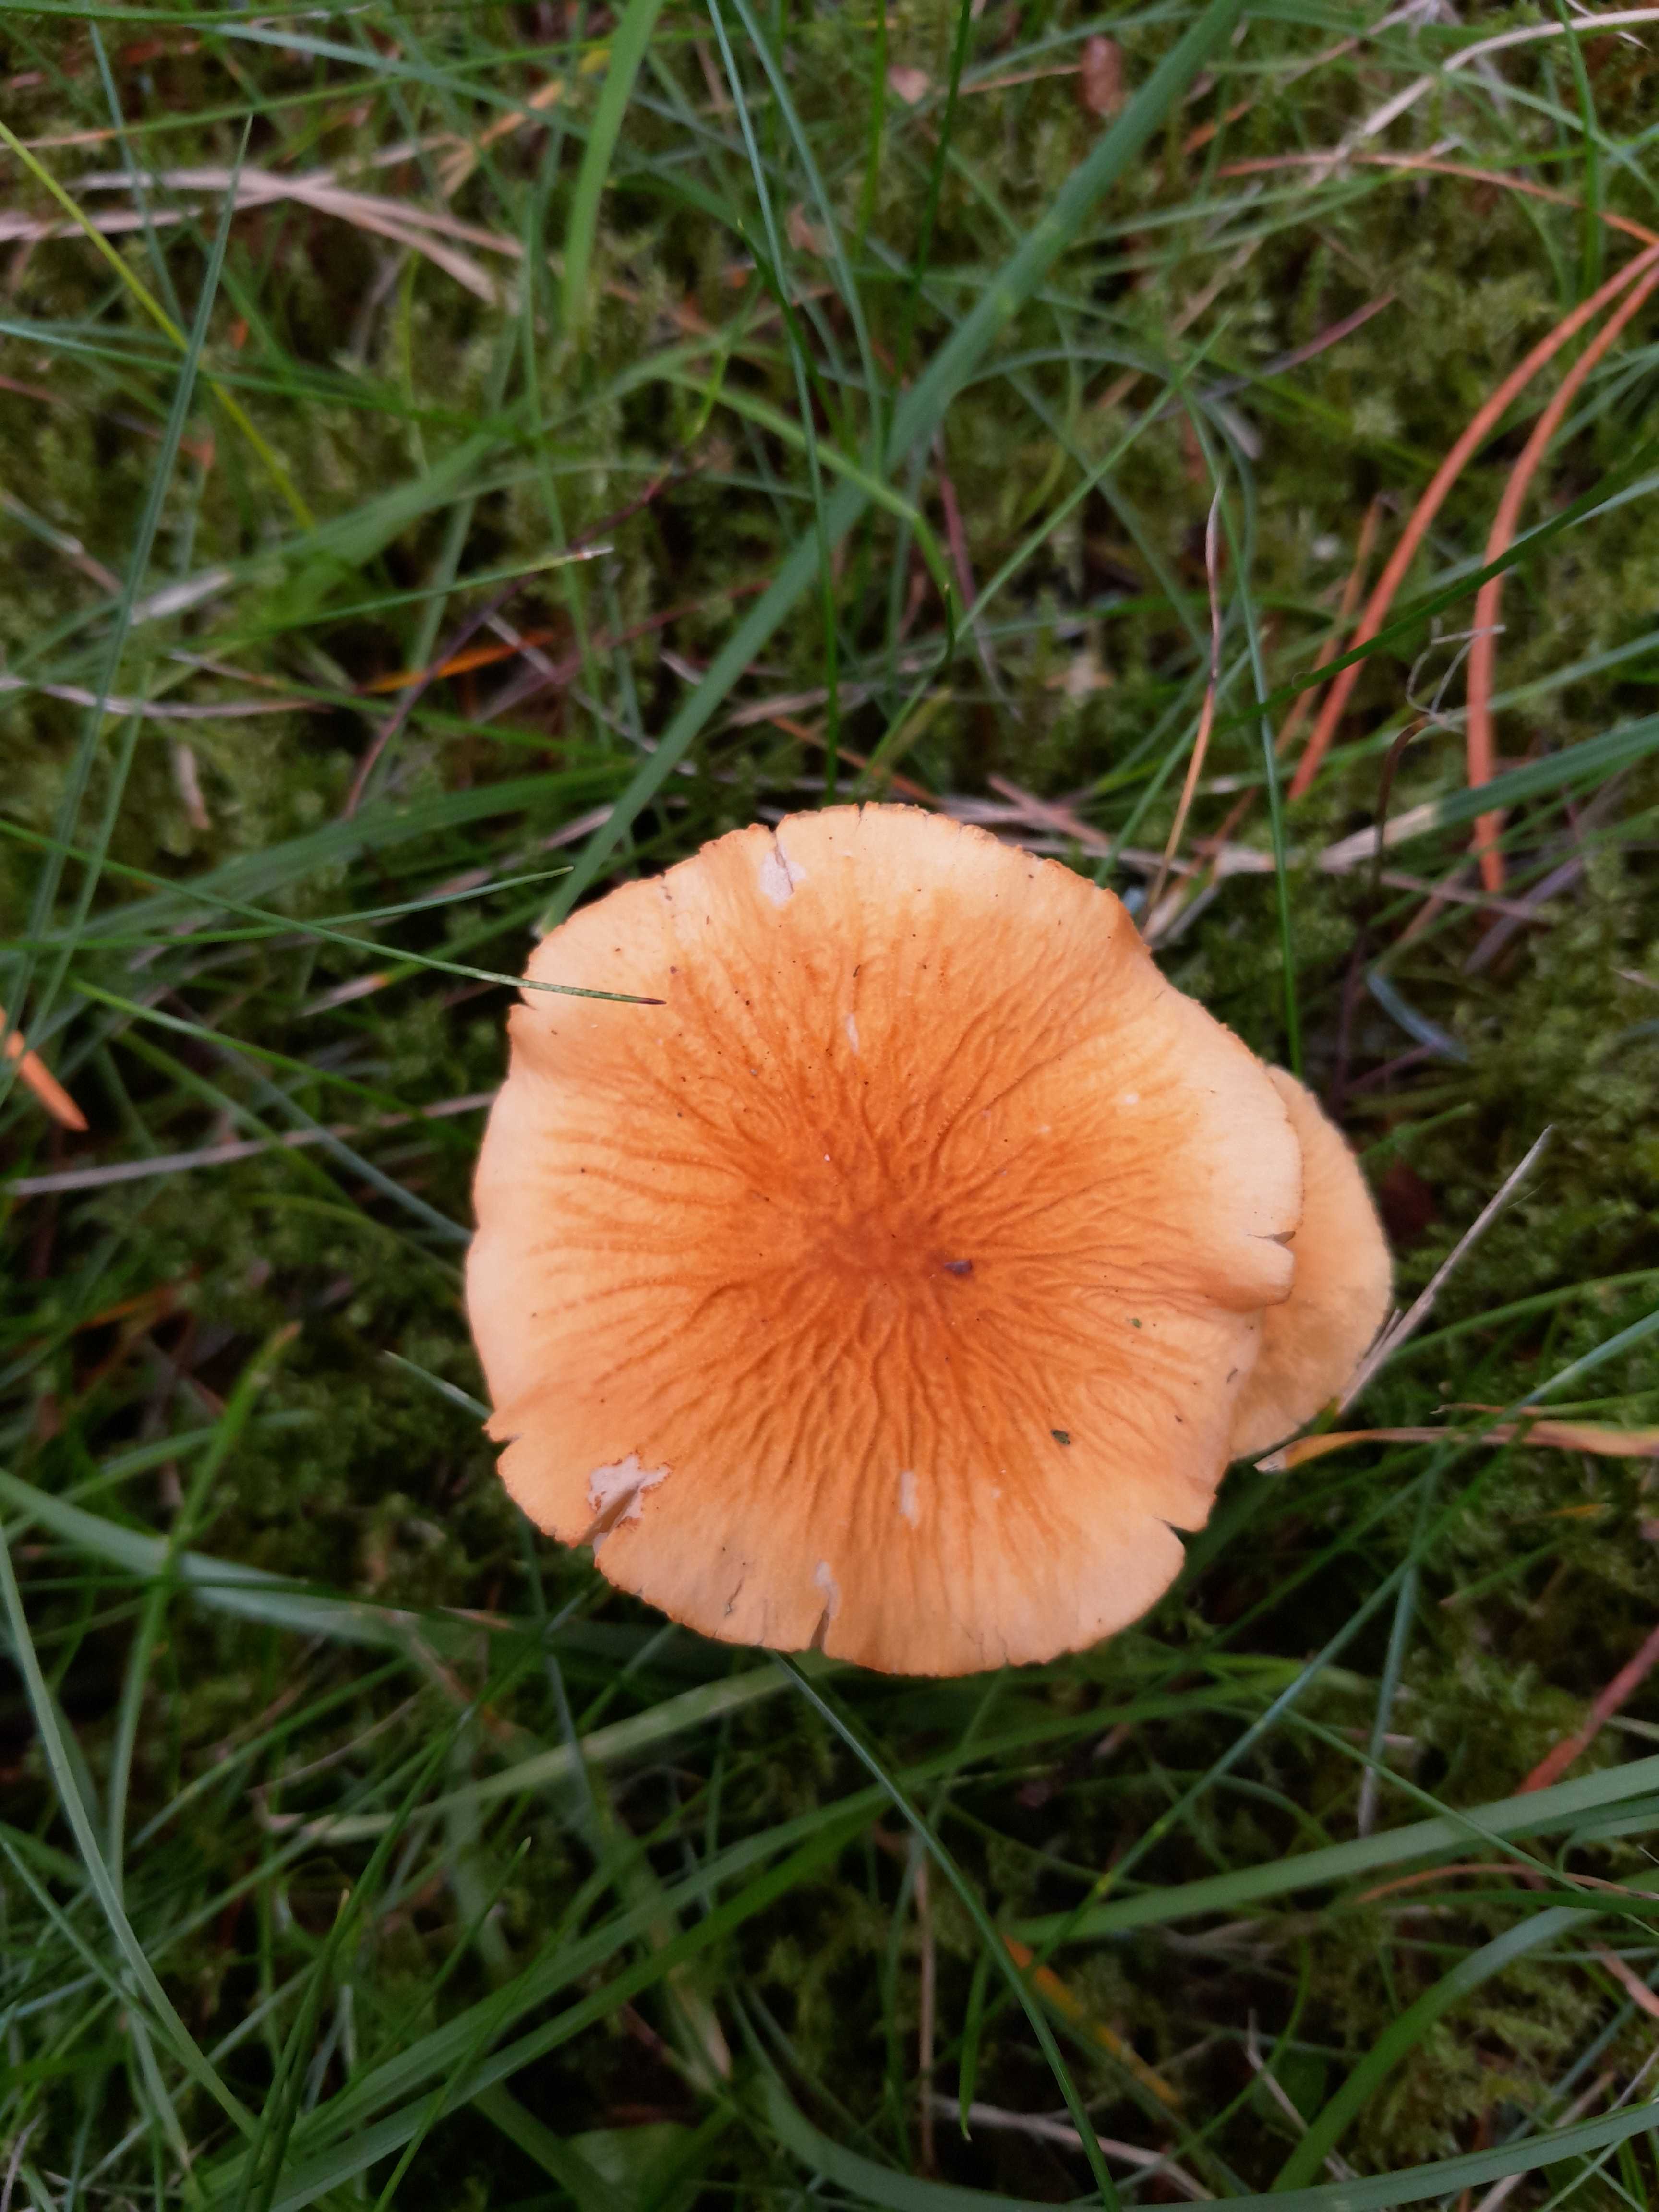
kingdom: Fungi
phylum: Basidiomycota
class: Agaricomycetes
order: Agaricales
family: Tricholomataceae
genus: Cystoderma
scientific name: Cystoderma amianthinum
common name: okkergul grynhat
